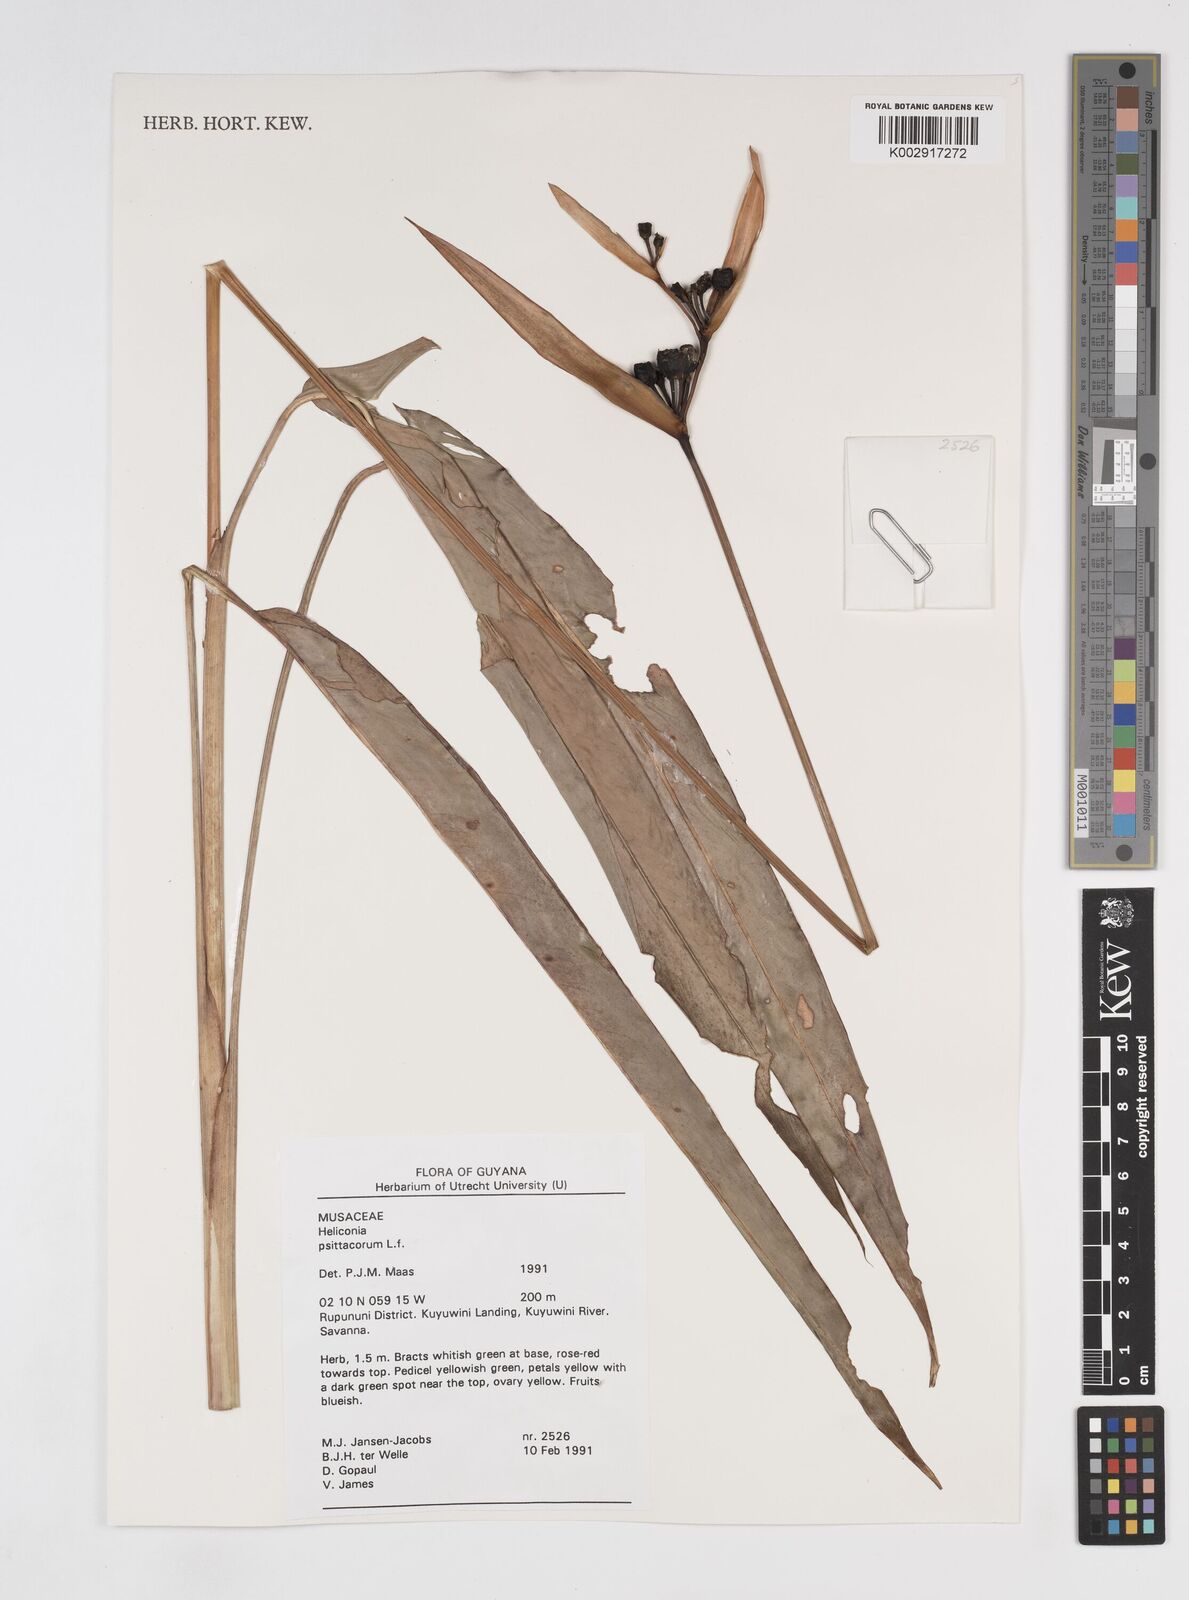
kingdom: Plantae
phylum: Tracheophyta
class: Liliopsida
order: Zingiberales
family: Heliconiaceae
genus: Heliconia
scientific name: Heliconia psittacorum
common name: Parrot's-flower
